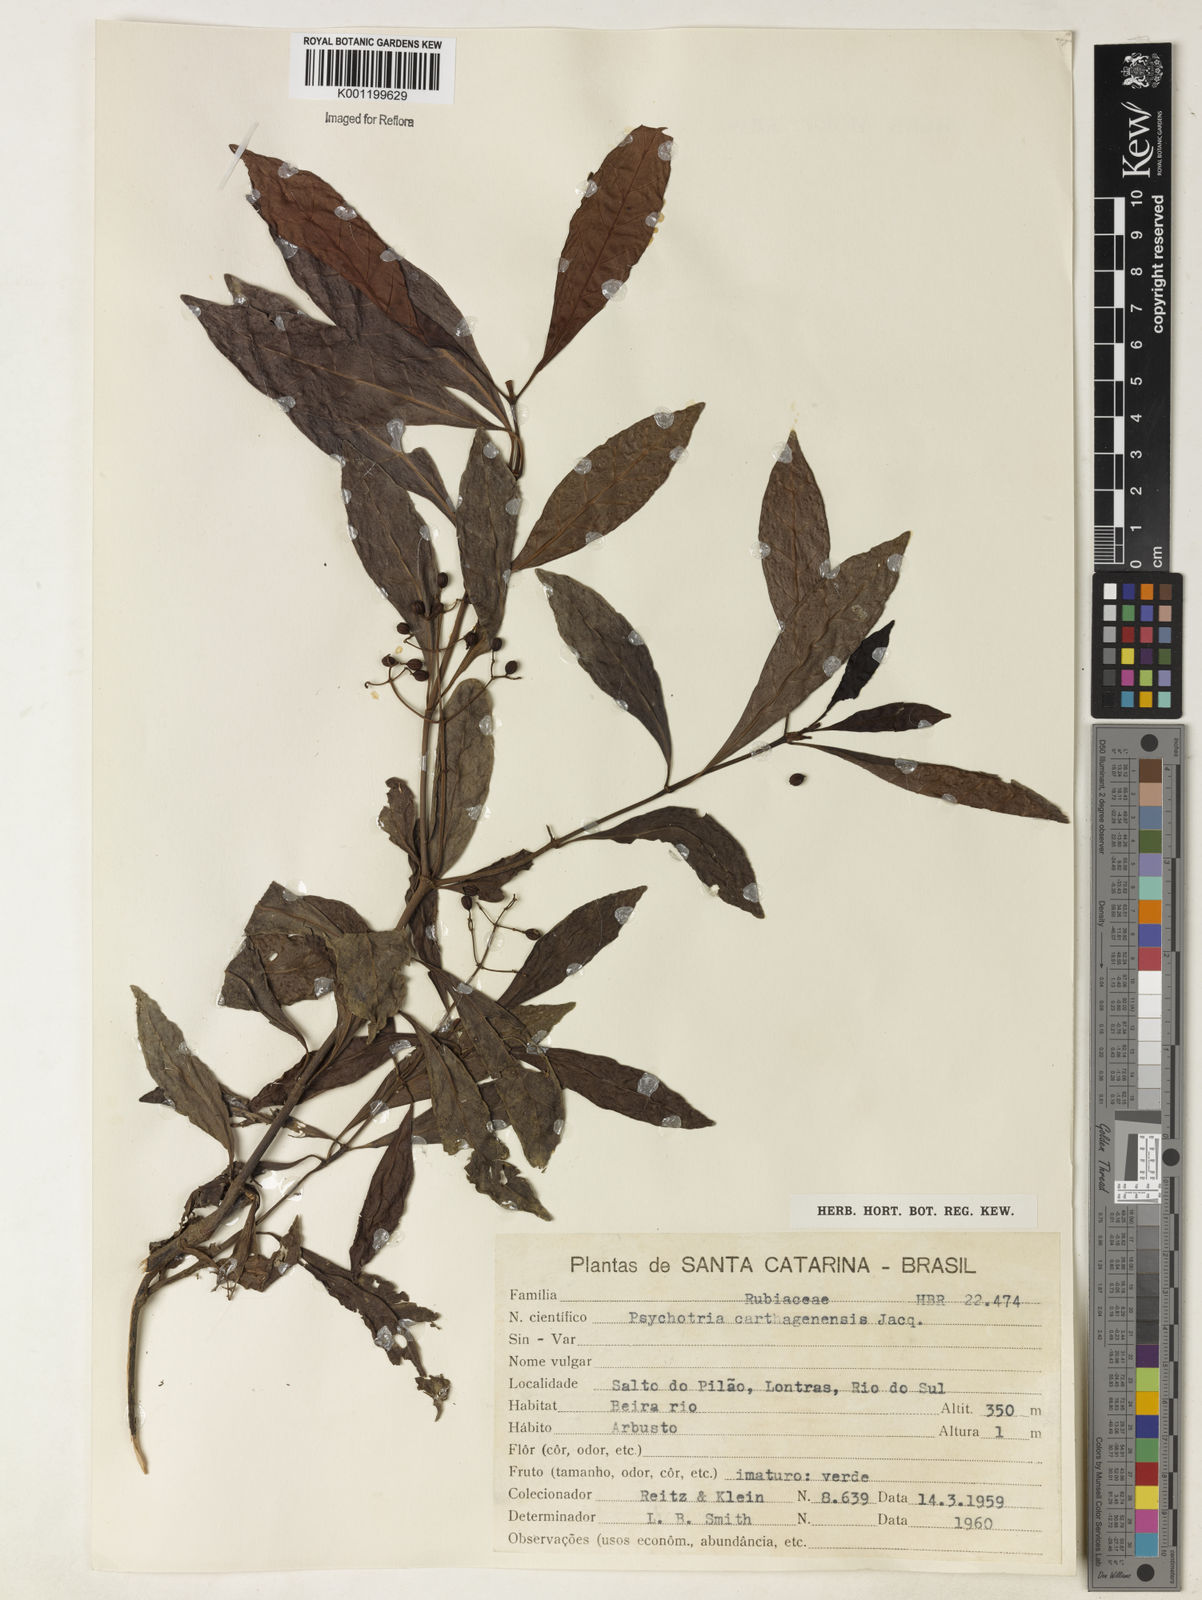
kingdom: Plantae
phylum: Tracheophyta
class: Magnoliopsida
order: Gentianales
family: Rubiaceae
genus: Psychotria
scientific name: Psychotria carthagenensis
